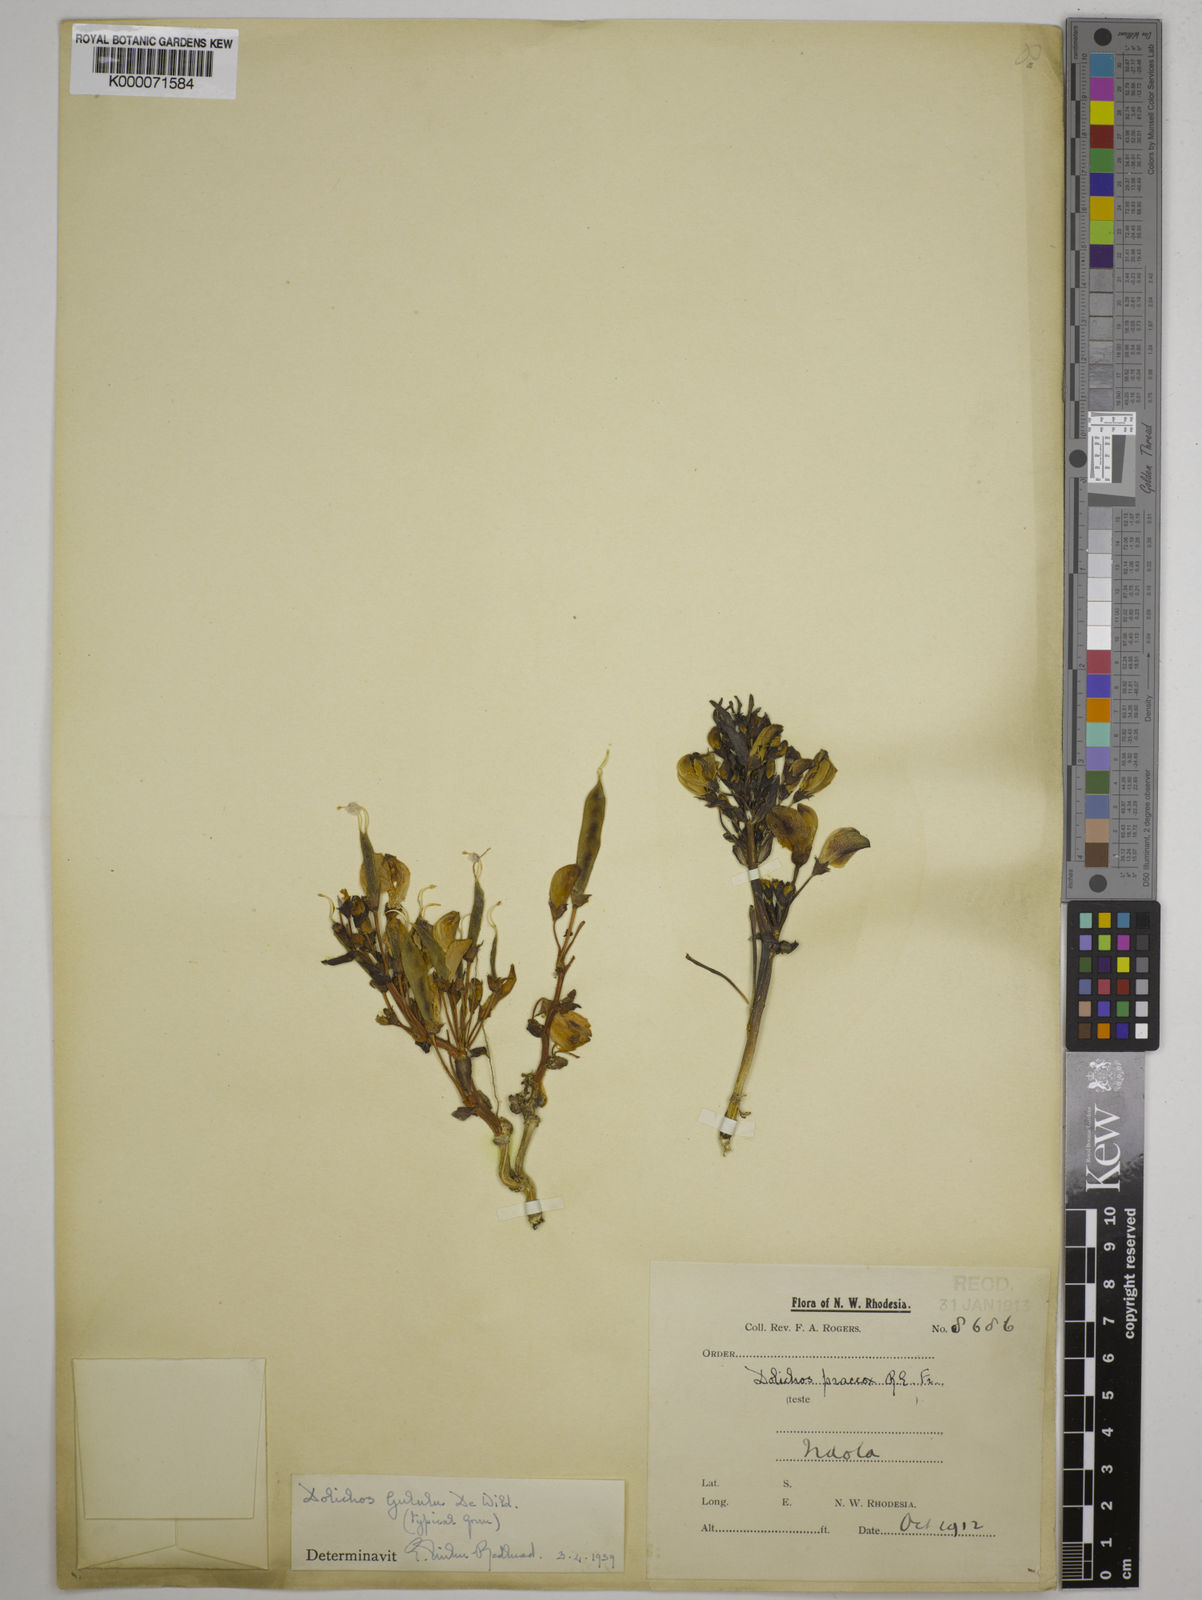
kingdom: Plantae
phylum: Tracheophyta
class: Magnoliopsida
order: Fabales
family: Fabaceae
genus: Dolichos
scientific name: Dolichos gululu
